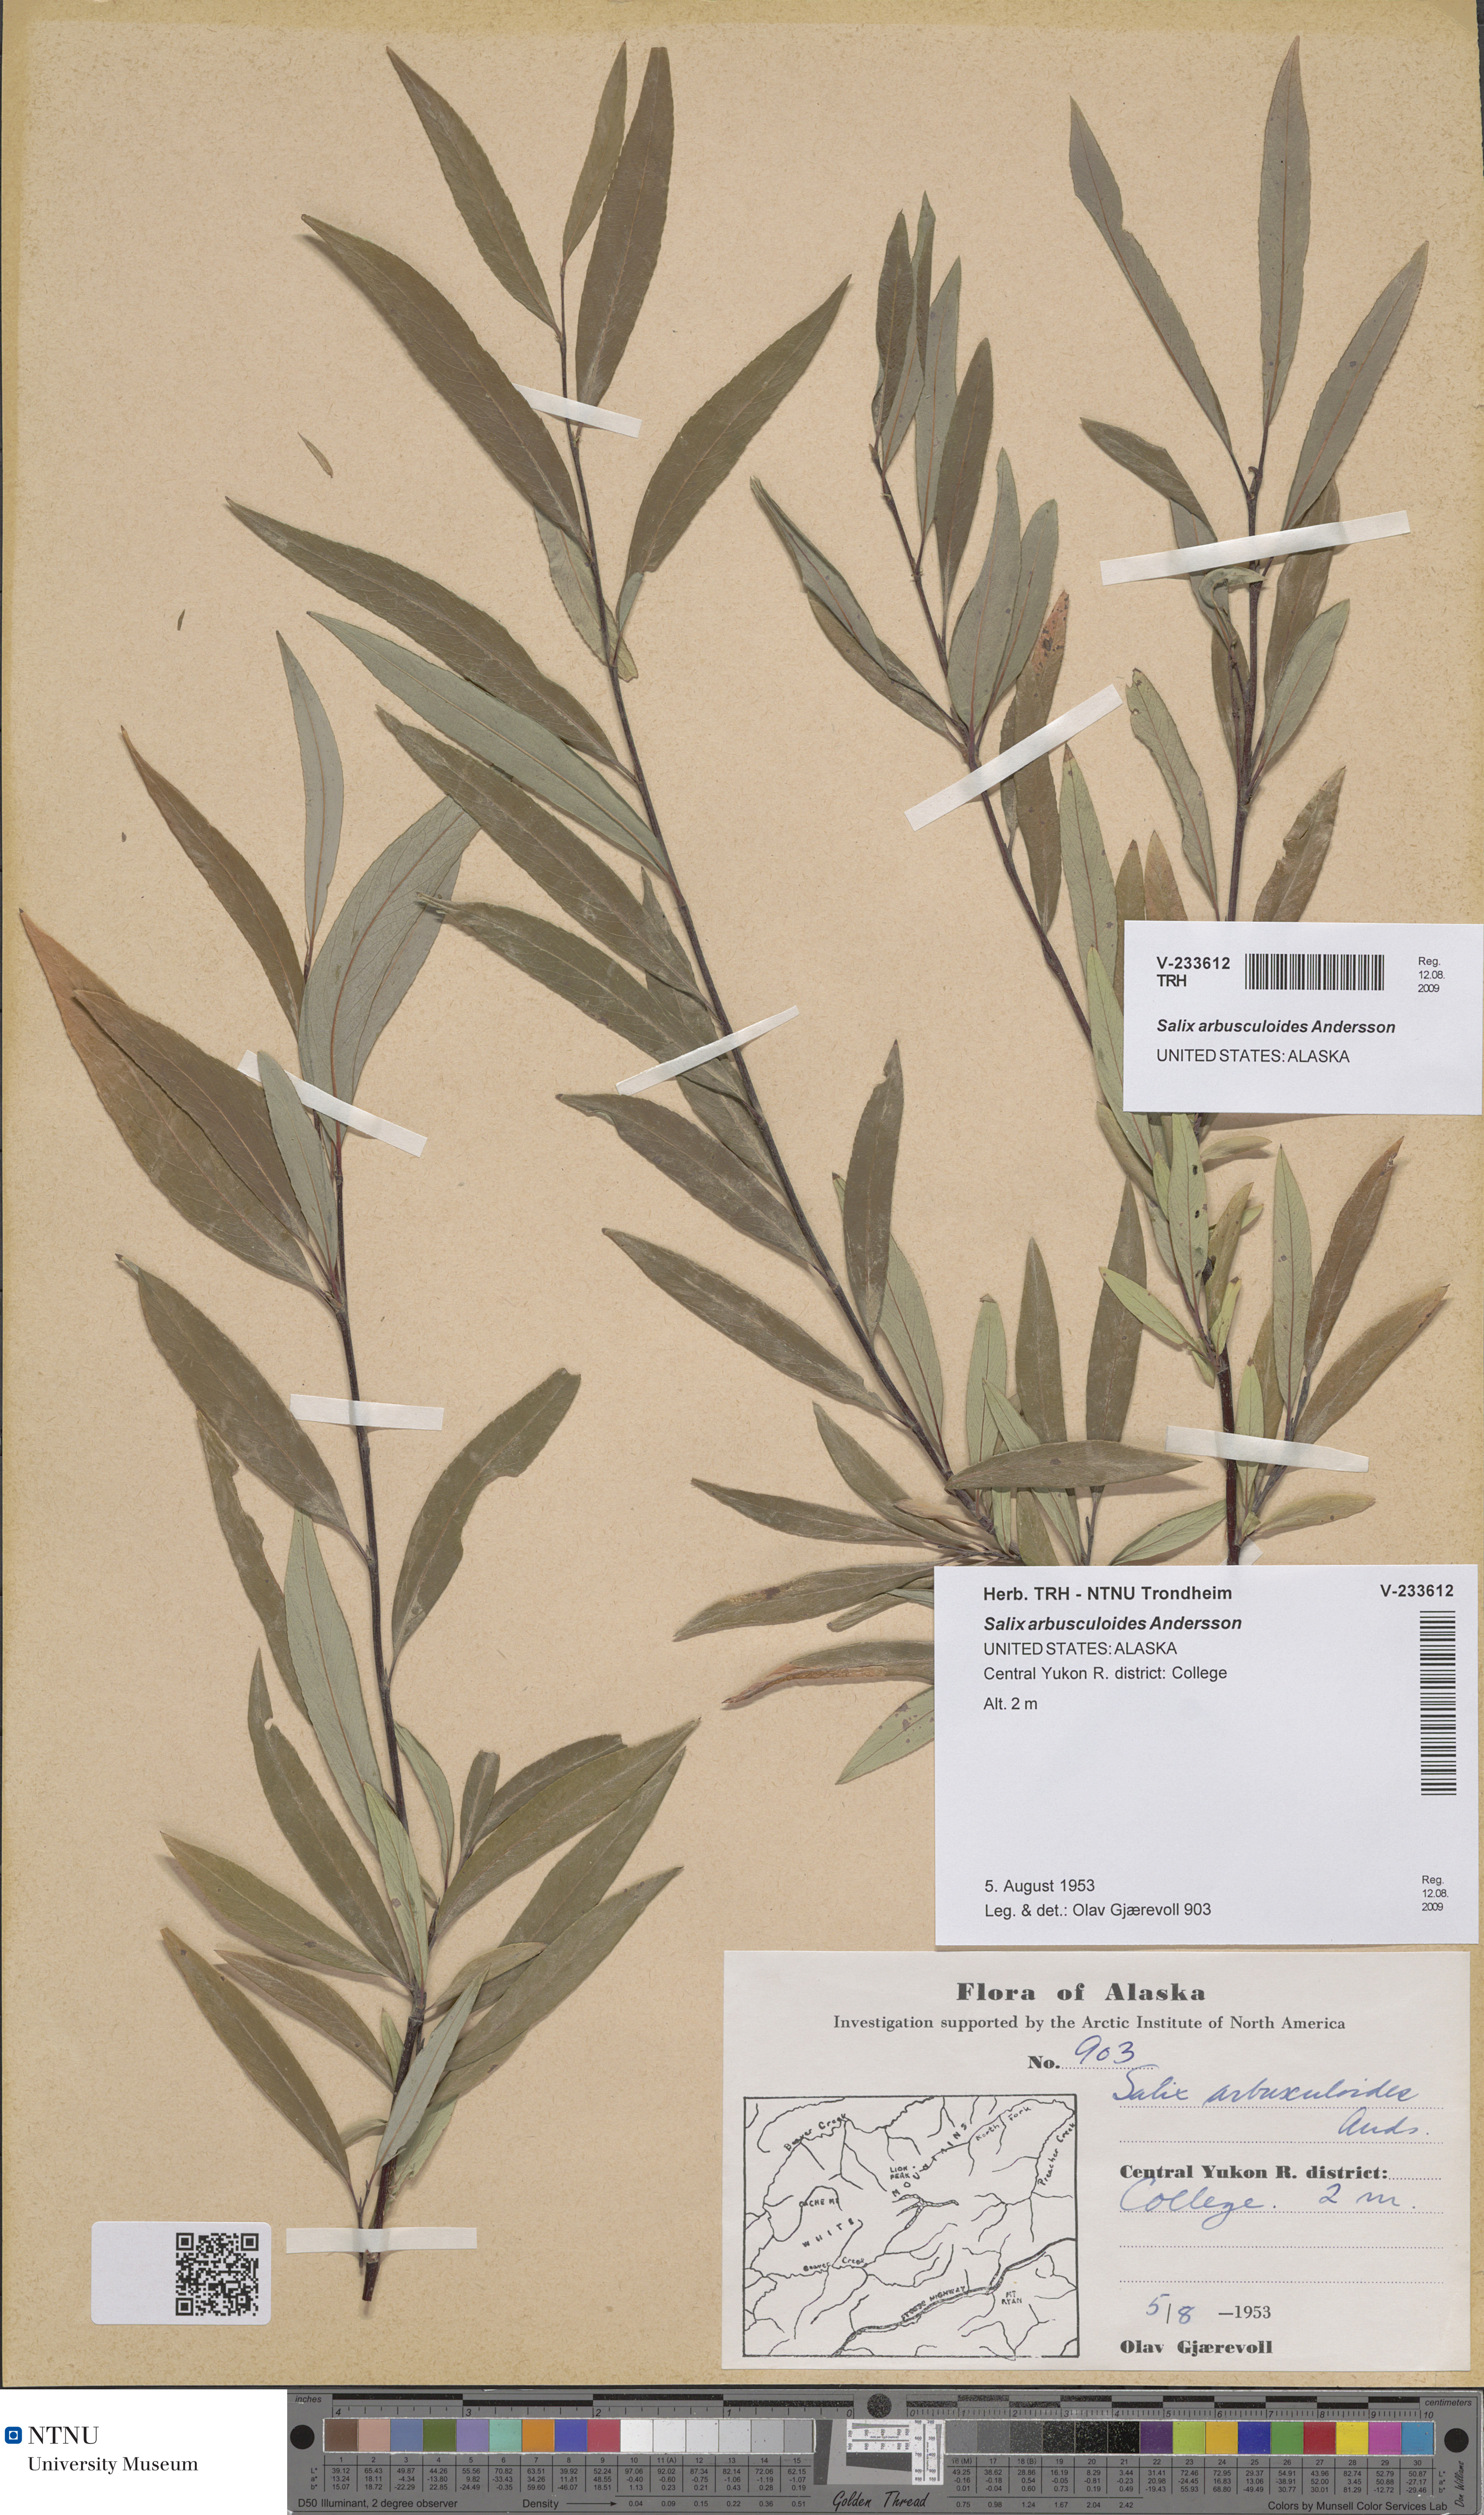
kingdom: Plantae
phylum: Tracheophyta
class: Magnoliopsida
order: Malpighiales
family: Salicaceae
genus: Salix
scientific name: Salix arbusculoides
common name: Little-tree willow
